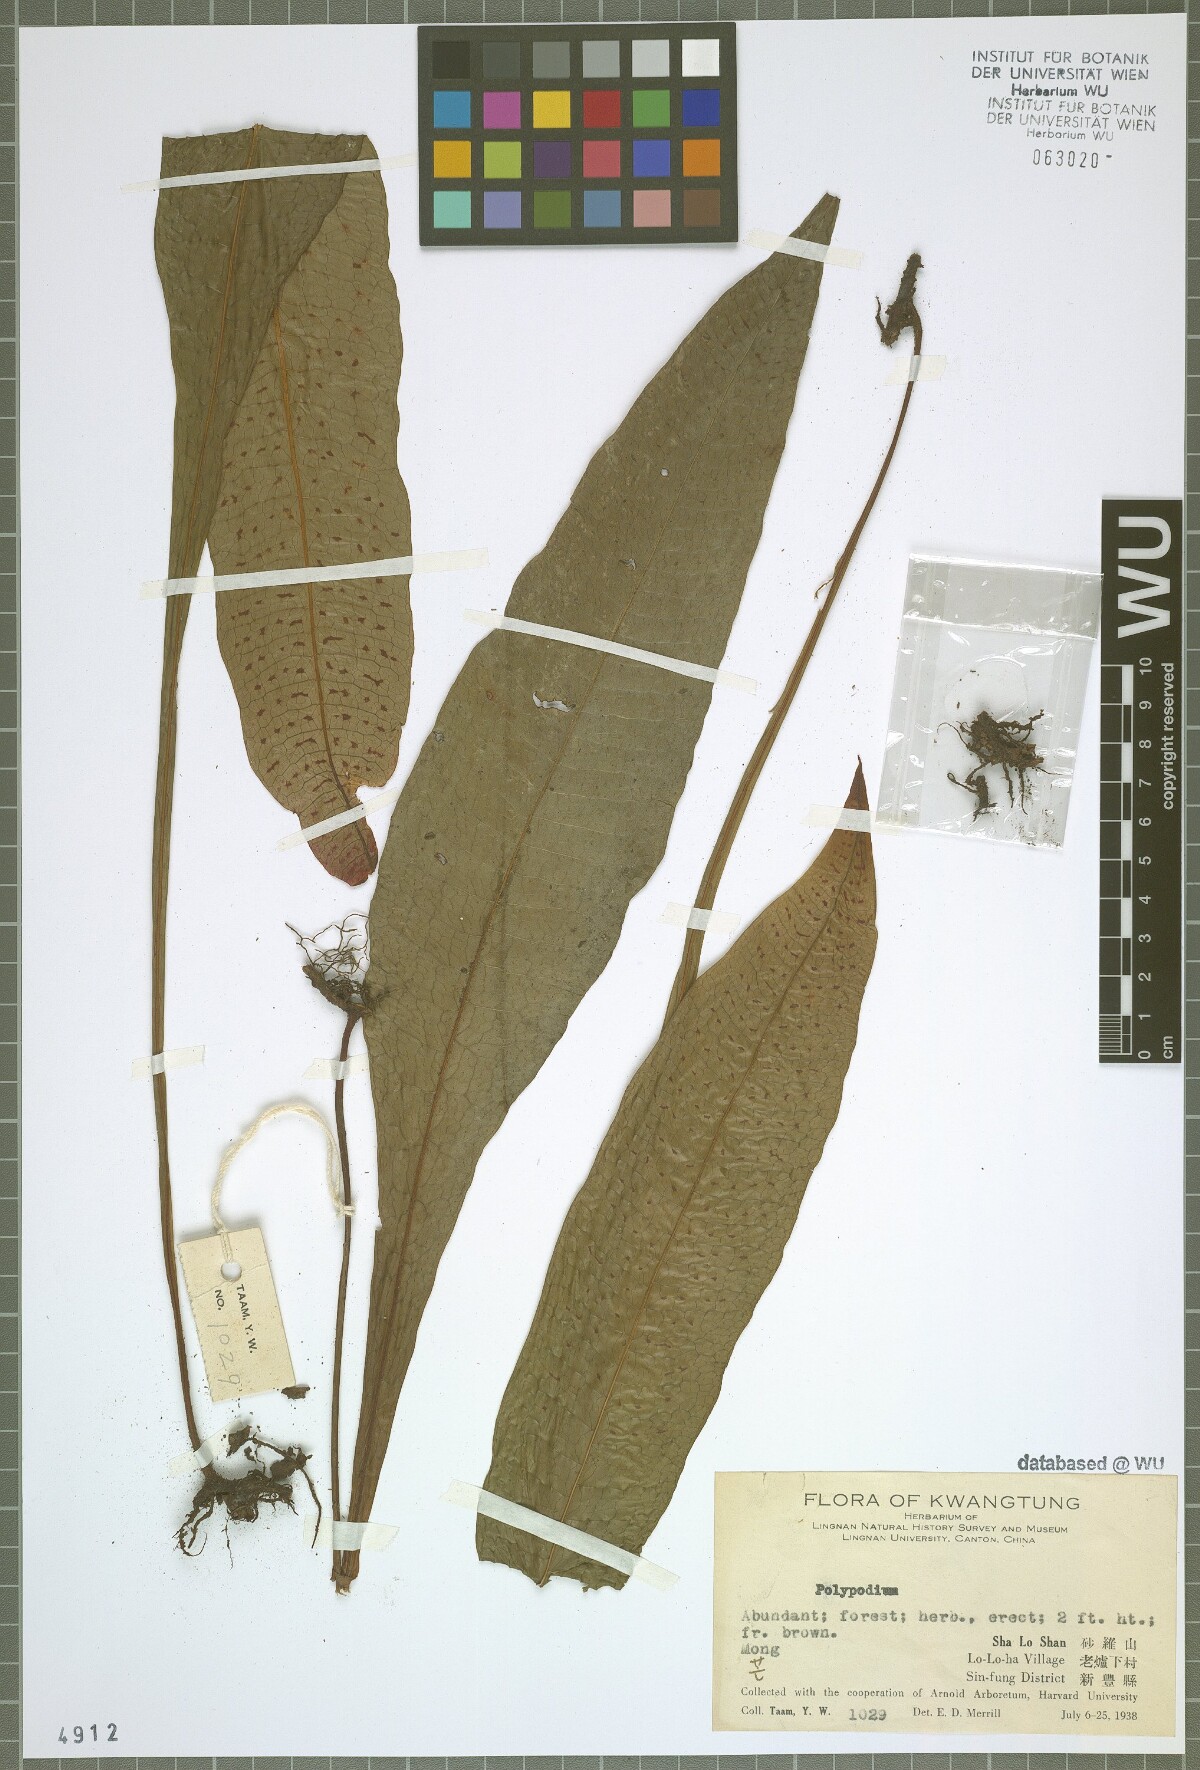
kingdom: Plantae
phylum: Tracheophyta
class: Polypodiopsida
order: Polypodiales
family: Polypodiaceae
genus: Polypodium
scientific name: Polypodium
